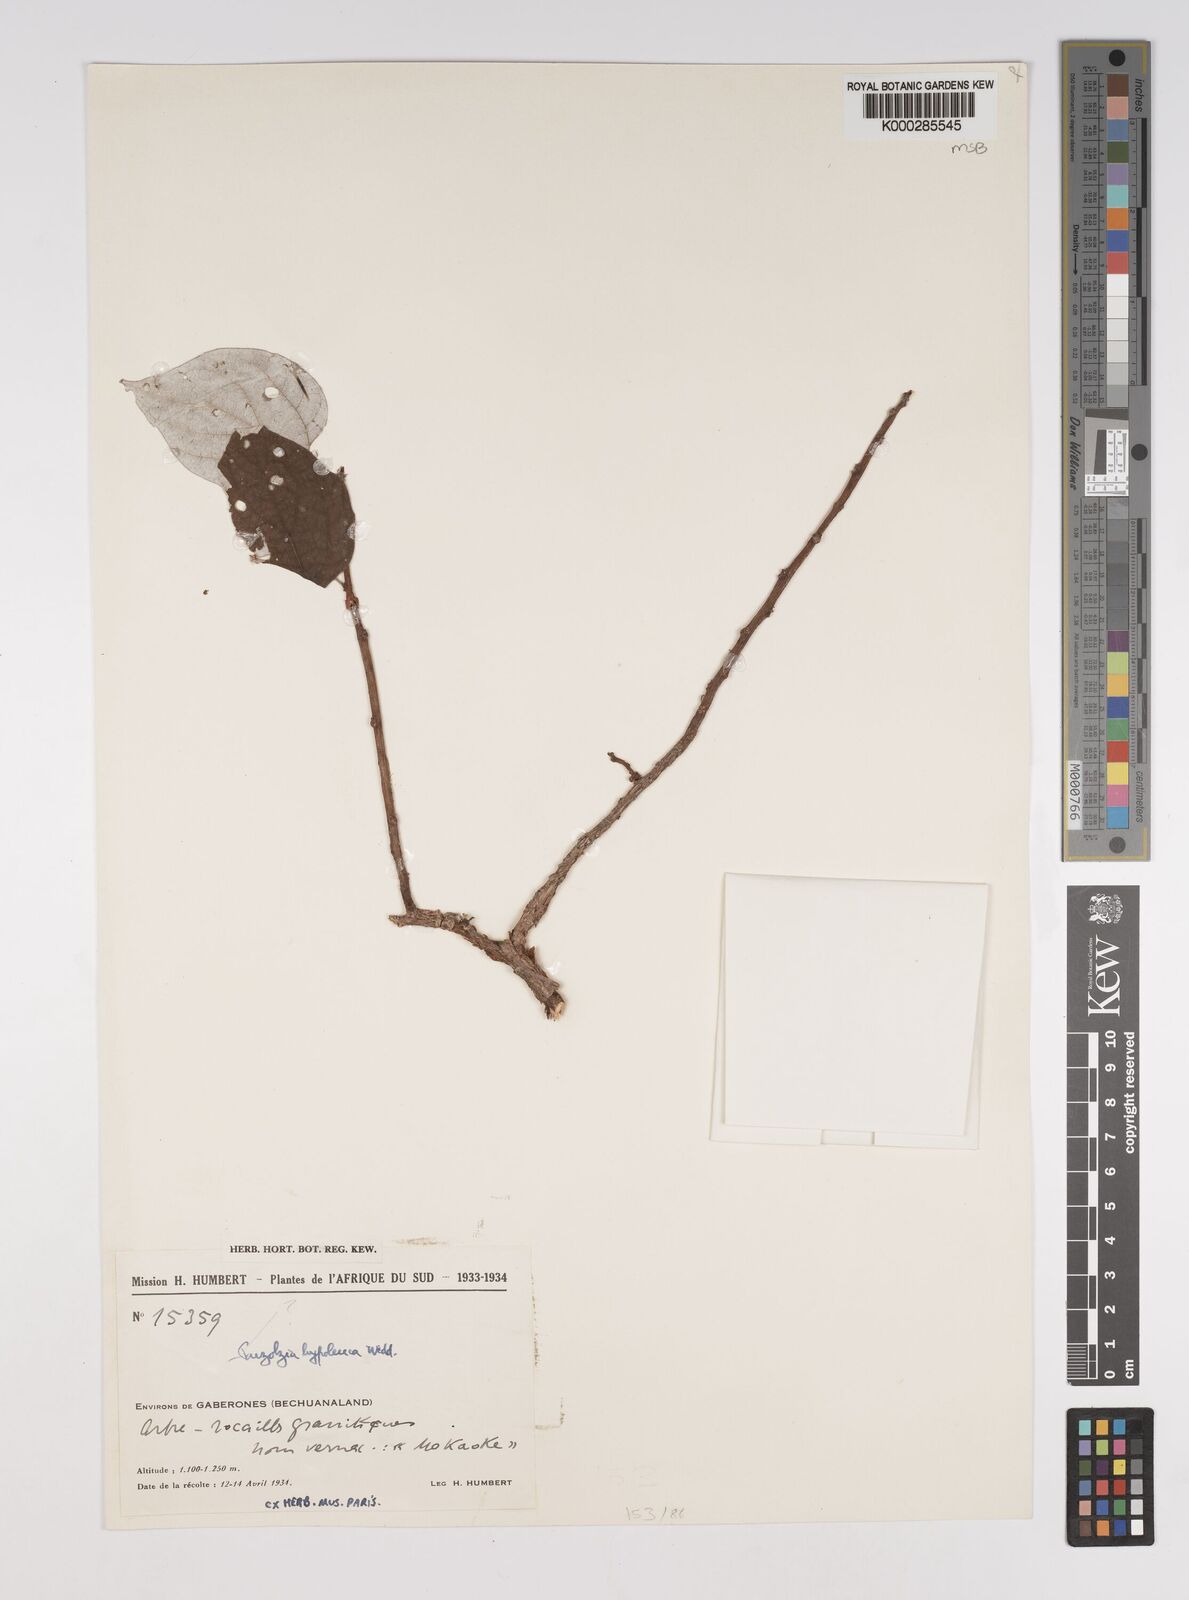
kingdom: Plantae
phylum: Tracheophyta
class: Magnoliopsida
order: Rosales
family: Urticaceae
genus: Pouzolzia
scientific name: Pouzolzia mixta
